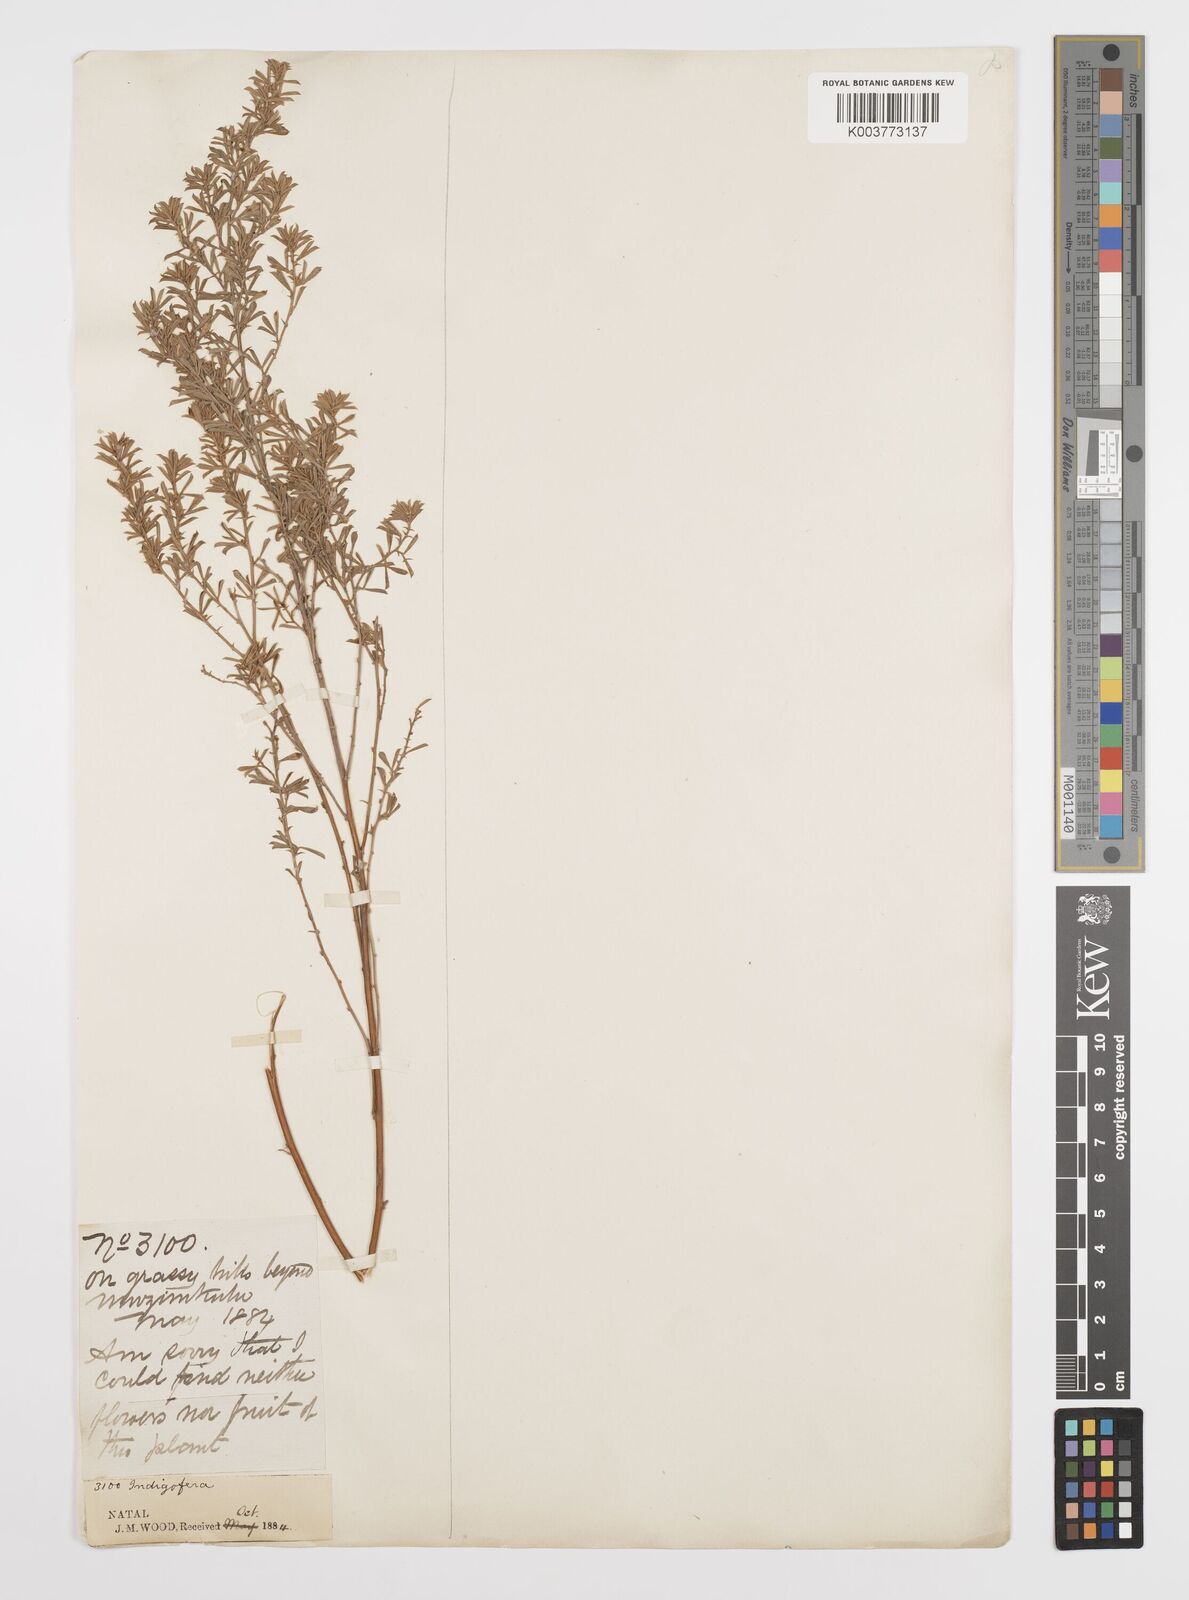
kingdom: Plantae
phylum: Tracheophyta
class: Magnoliopsida
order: Fabales
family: Fabaceae
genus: Indigofera
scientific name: Indigofera
